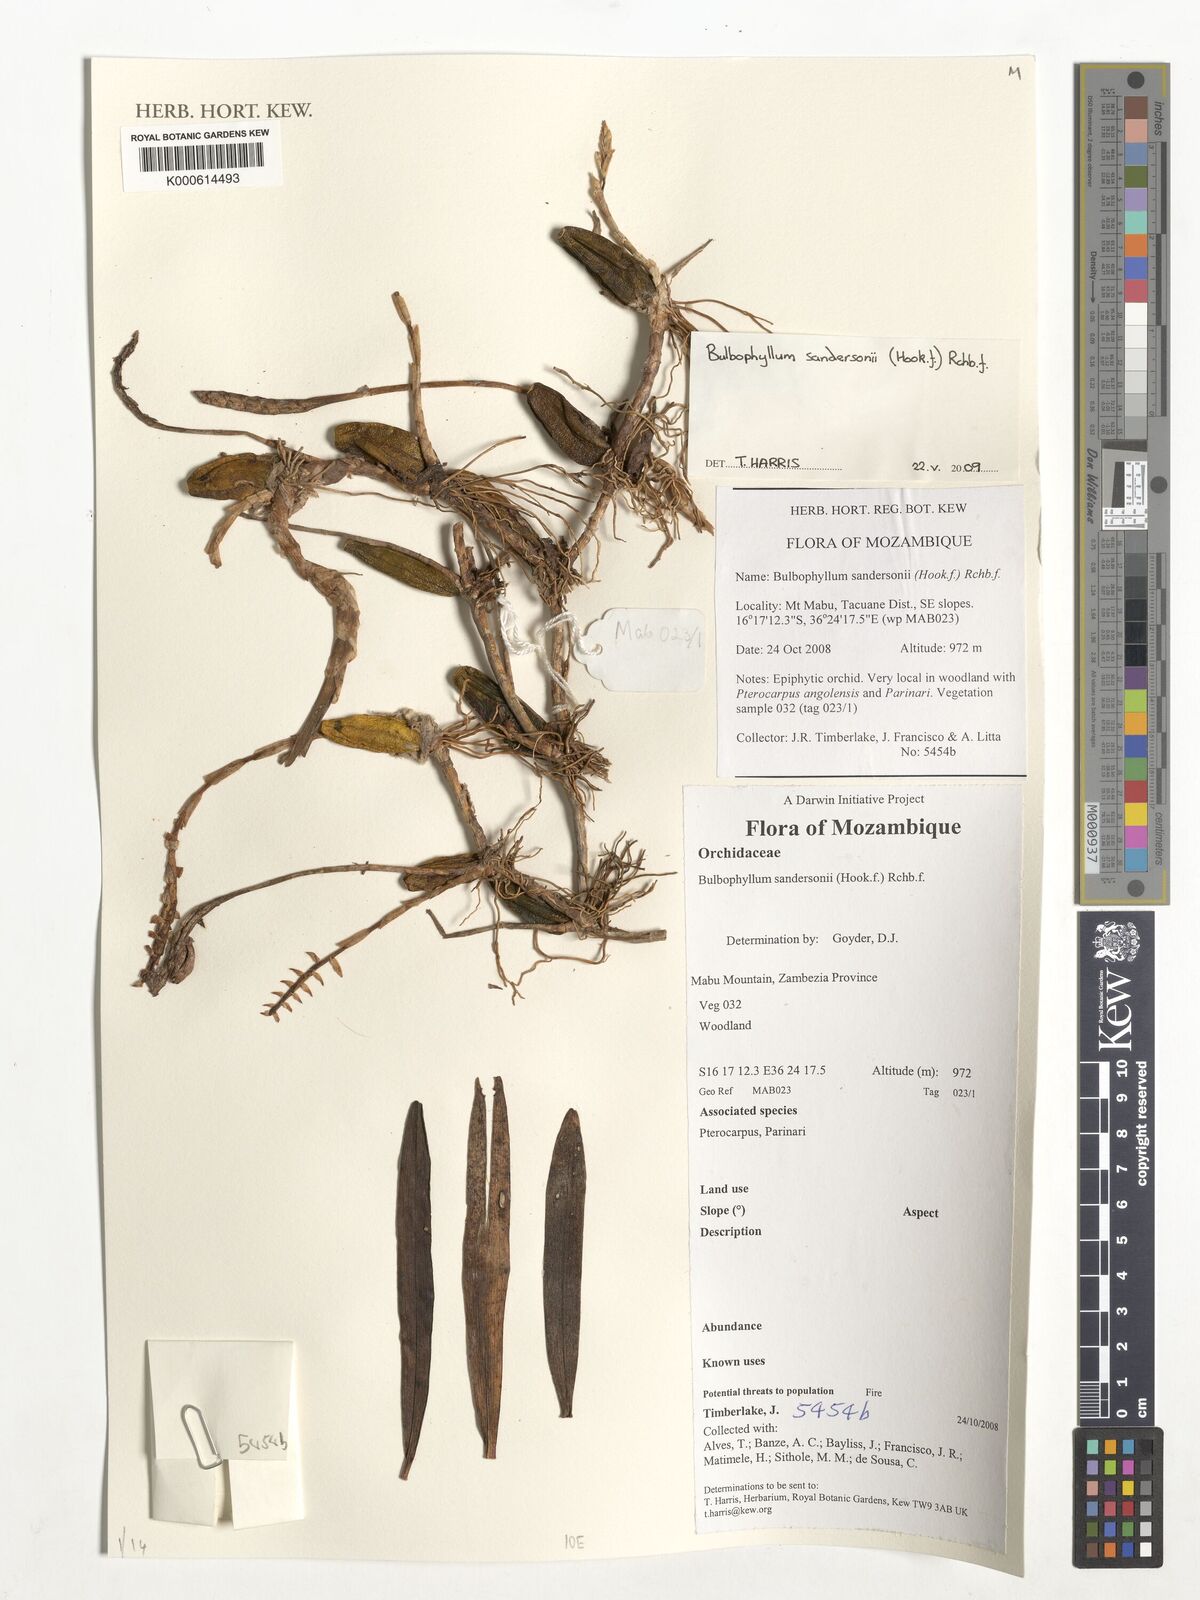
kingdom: Plantae
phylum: Tracheophyta
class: Liliopsida
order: Asparagales
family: Orchidaceae
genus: Bulbophyllum
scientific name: Bulbophyllum sandersonii
